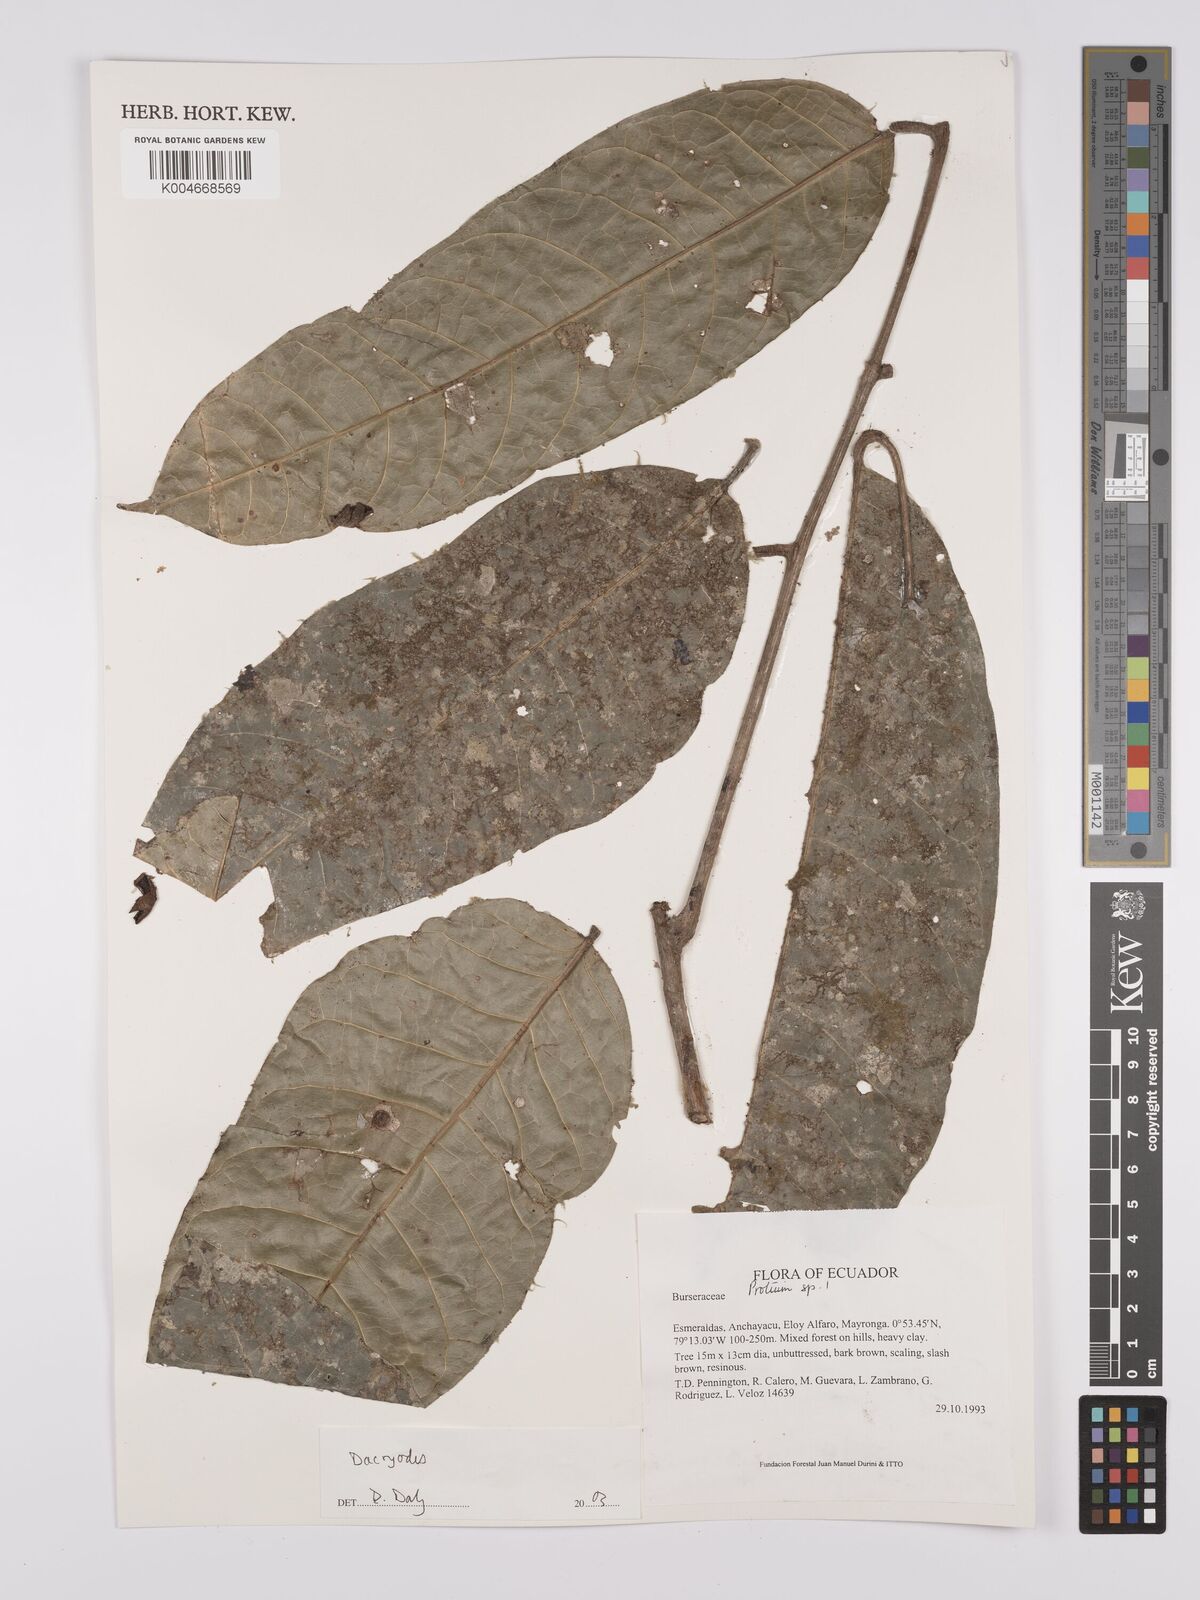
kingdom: Plantae
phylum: Tracheophyta
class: Magnoliopsida
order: Sapindales
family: Burseraceae
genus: Dacryodes
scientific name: Dacryodes
